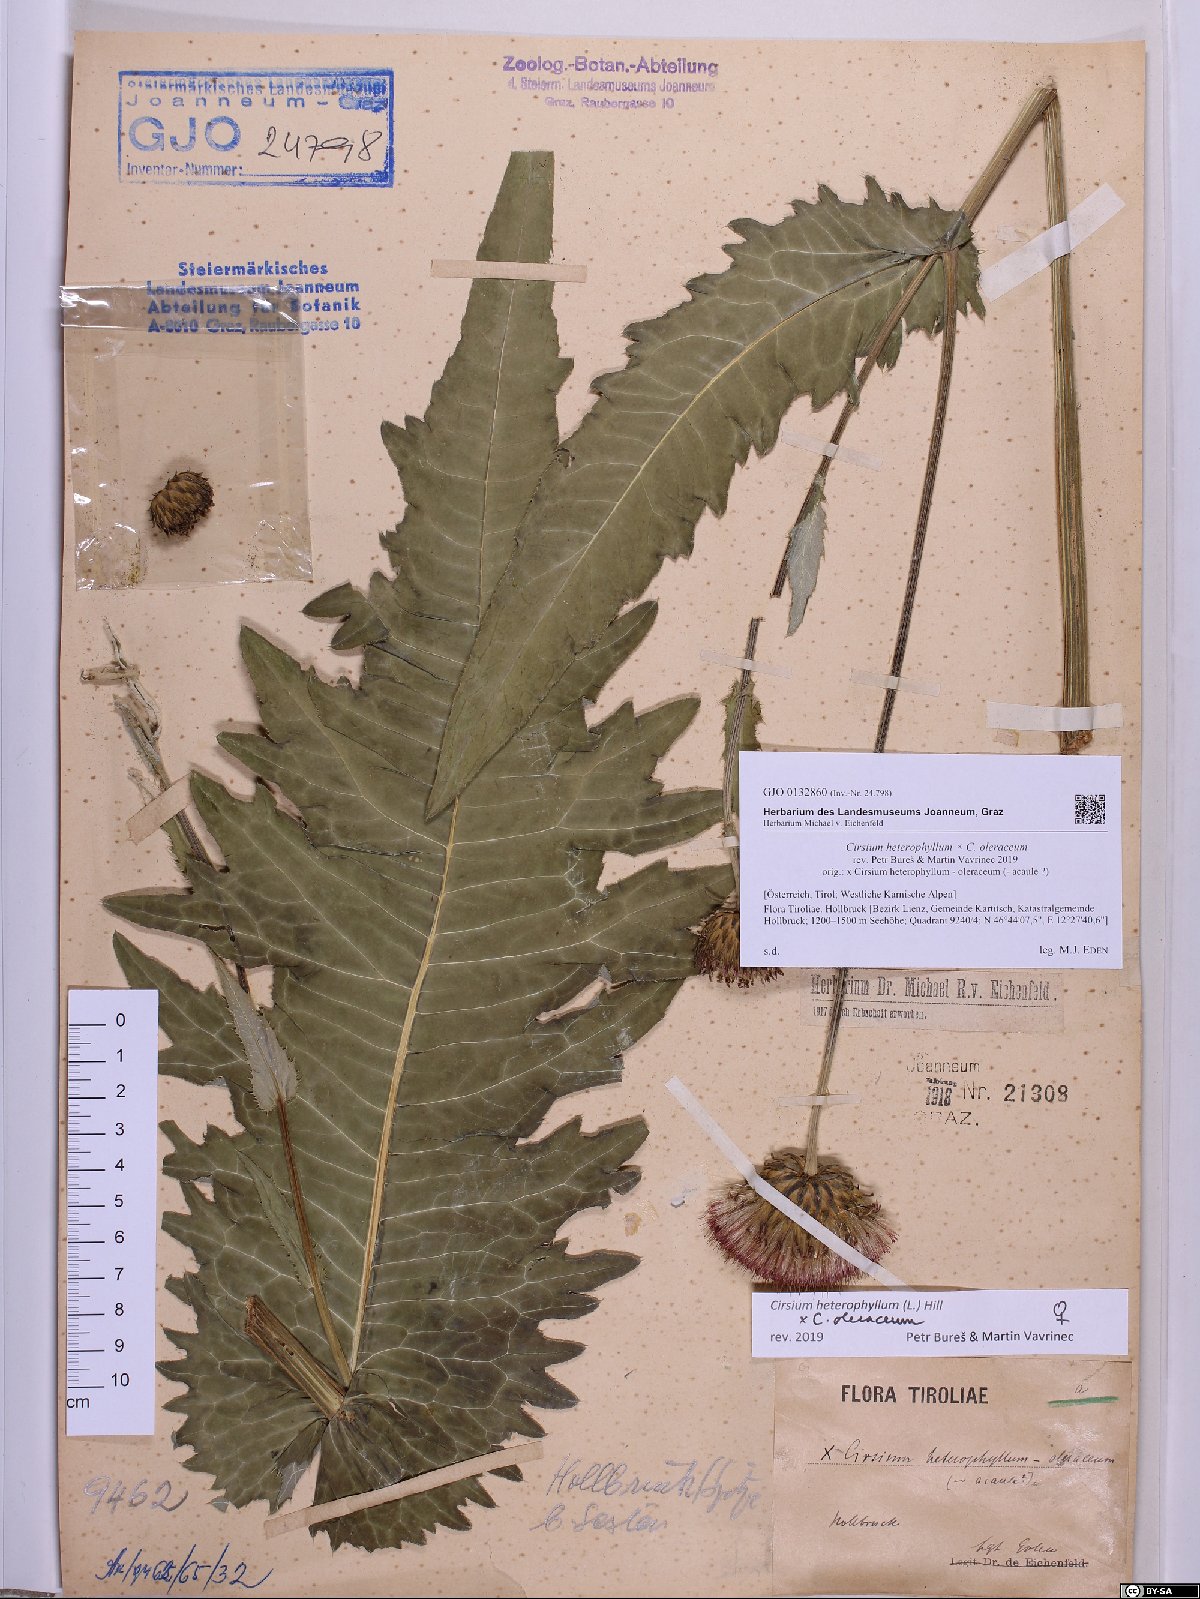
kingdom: Plantae
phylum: Tracheophyta
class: Magnoliopsida
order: Asterales
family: Asteraceae
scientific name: Asteraceae
